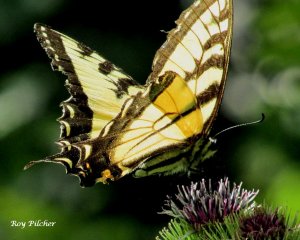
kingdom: Animalia
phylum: Arthropoda
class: Insecta
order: Lepidoptera
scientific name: Lepidoptera
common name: Butterflies
